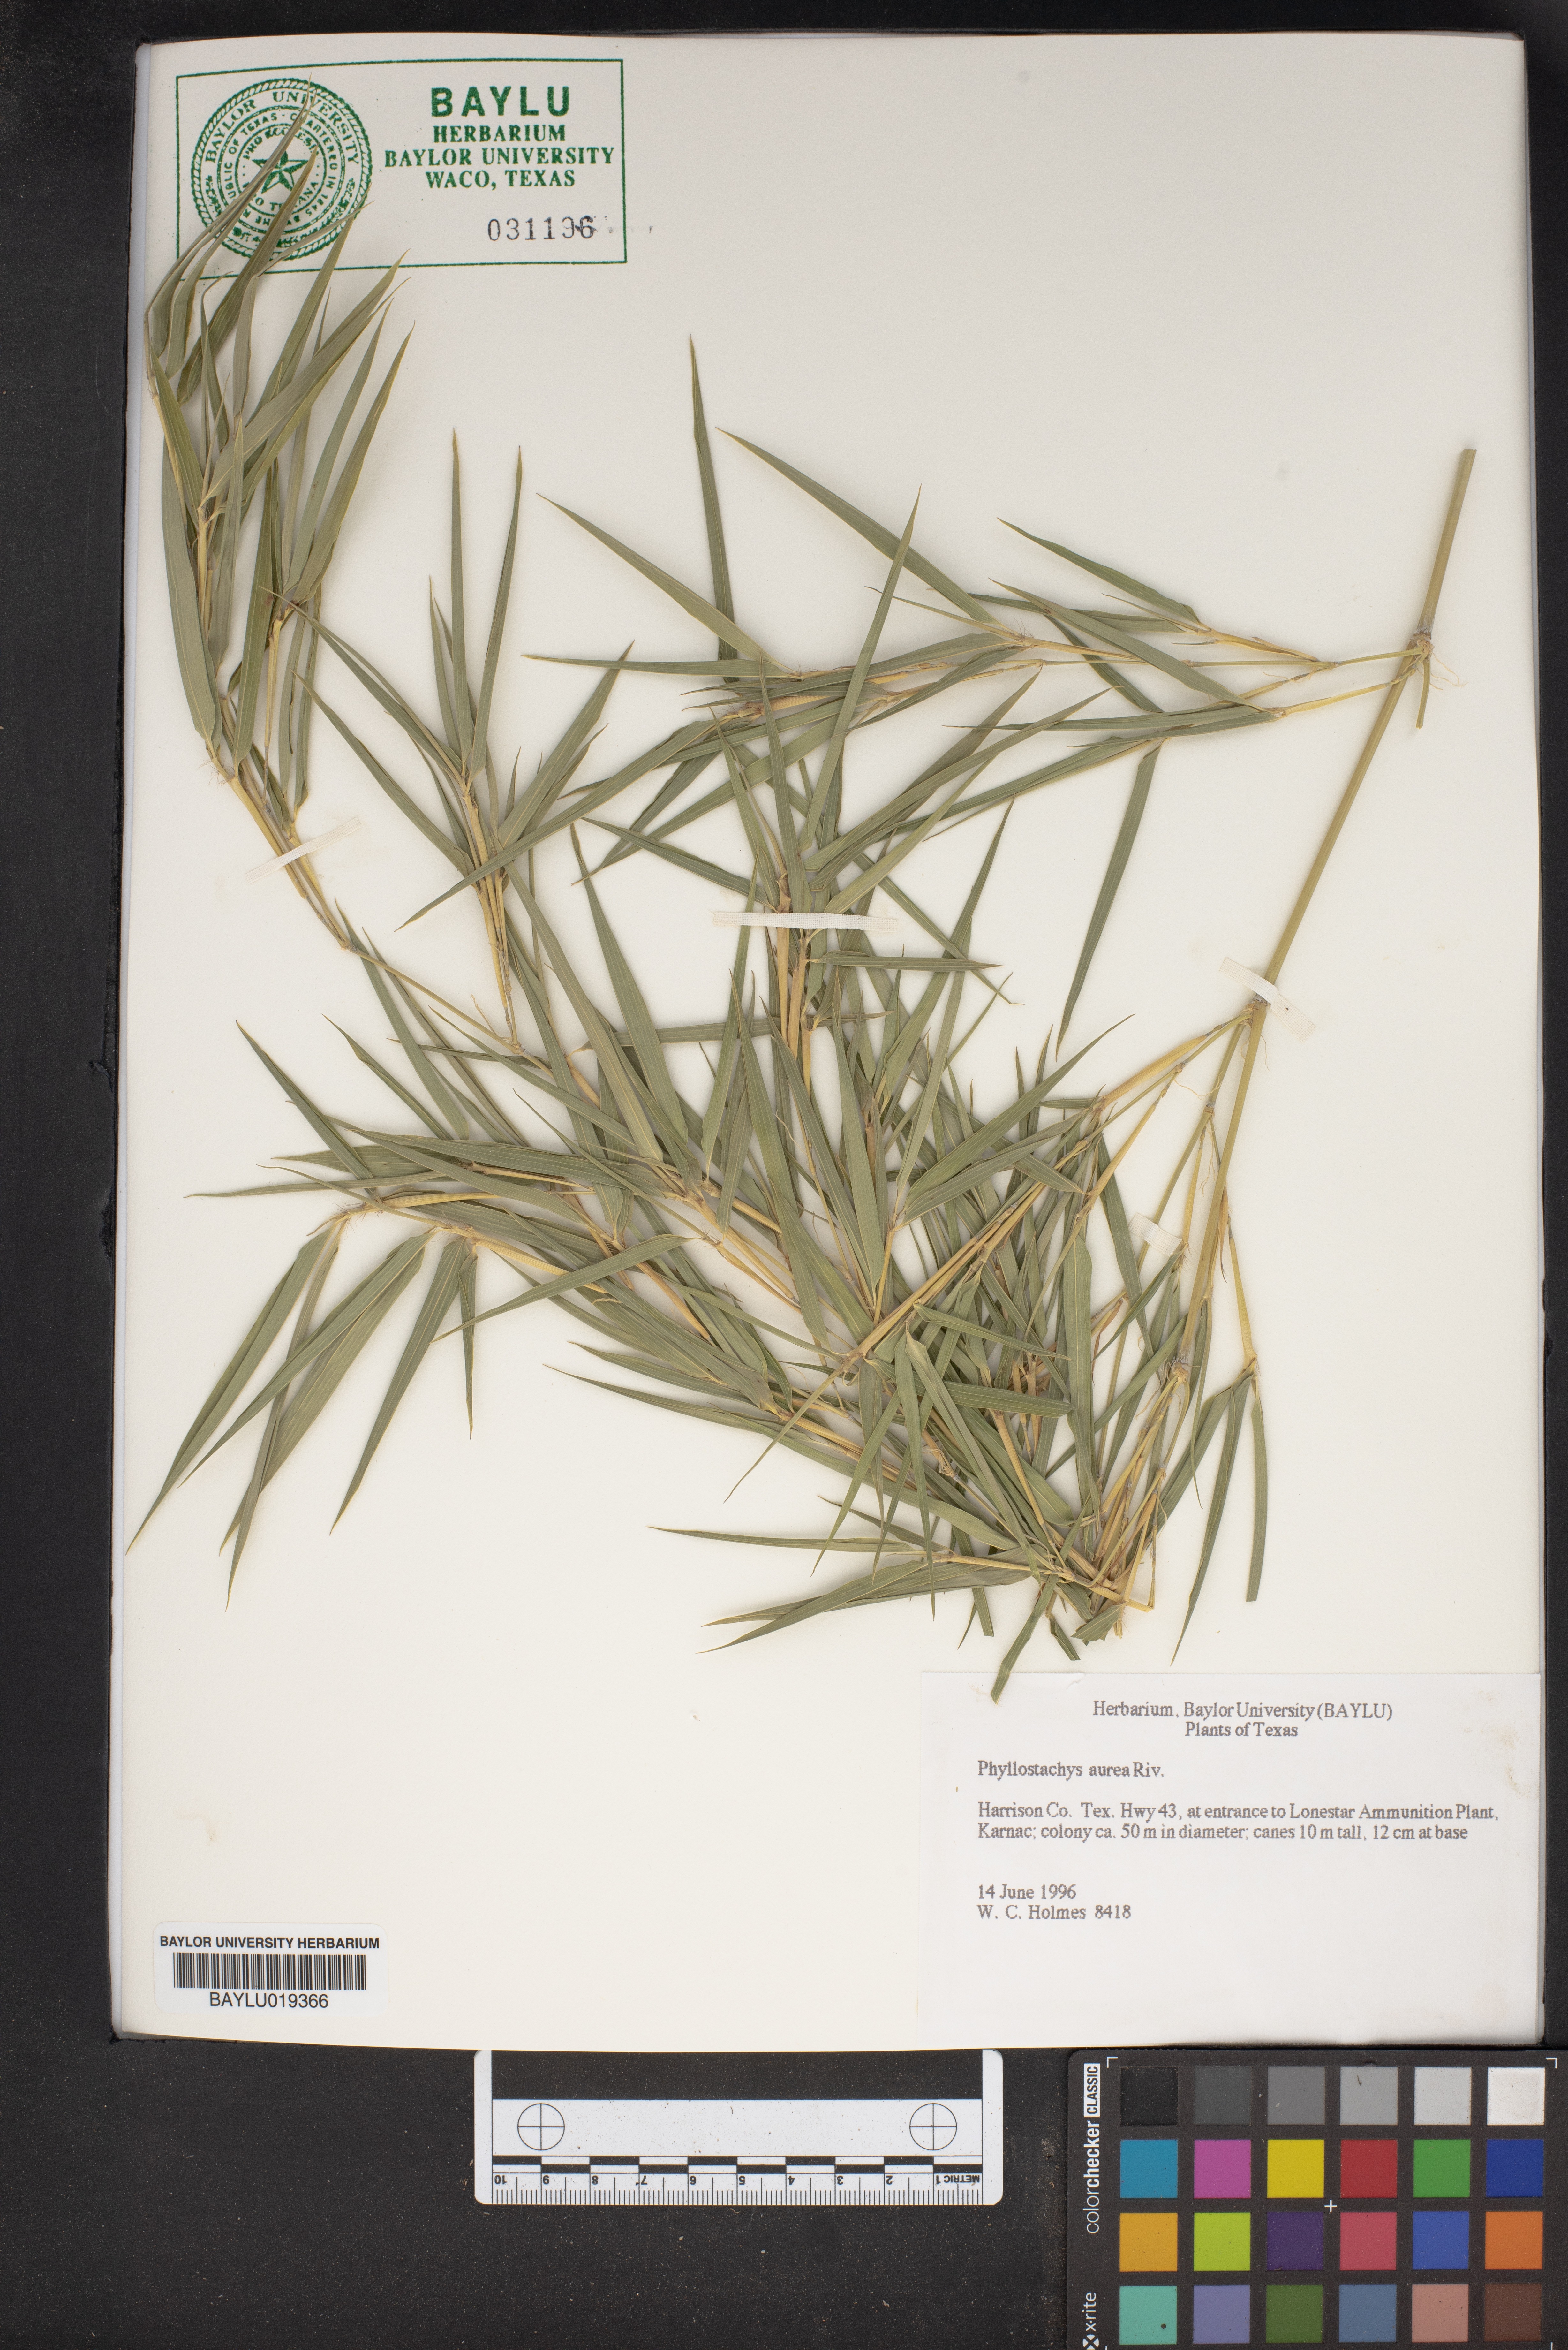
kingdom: Plantae
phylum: Tracheophyta
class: Liliopsida
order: Poales
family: Poaceae
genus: Phyllostachys
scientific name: Phyllostachys aurea
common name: Golden bamboo
